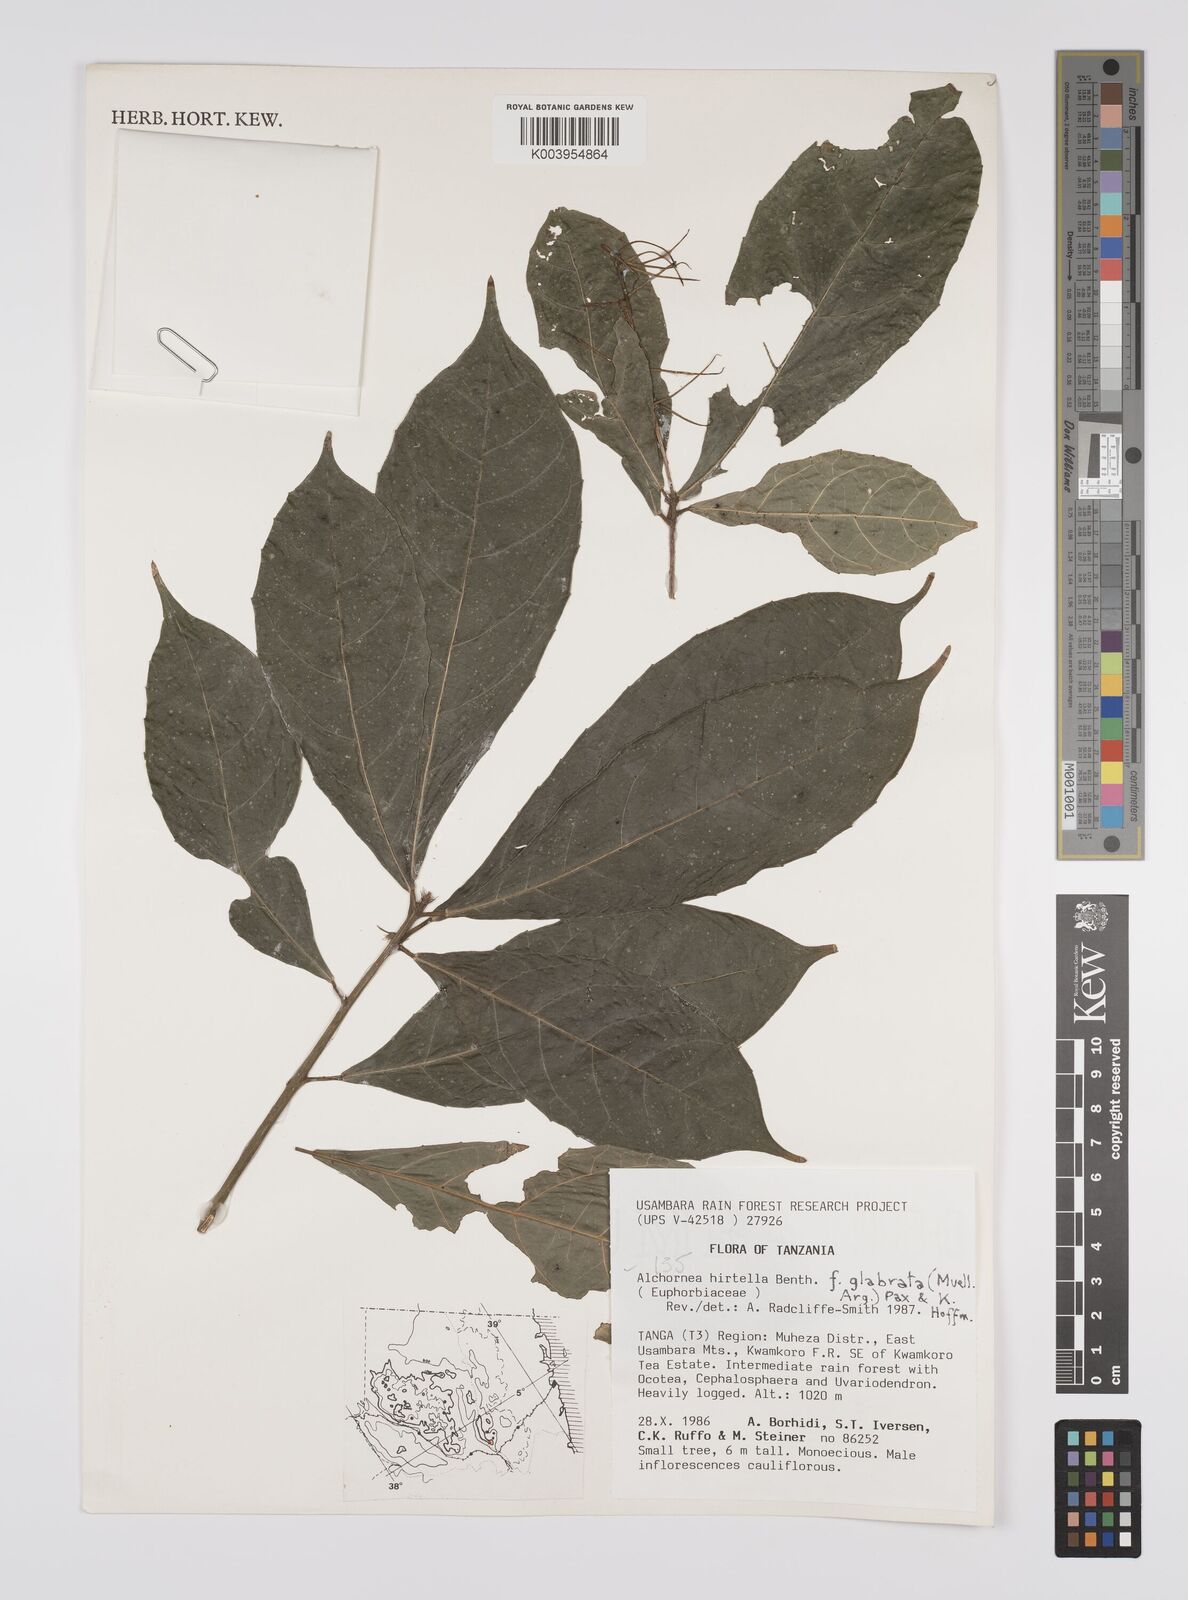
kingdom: Plantae
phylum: Tracheophyta
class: Magnoliopsida
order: Malpighiales
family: Euphorbiaceae
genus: Alchornea
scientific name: Alchornea hirtella
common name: Forest bead-string
